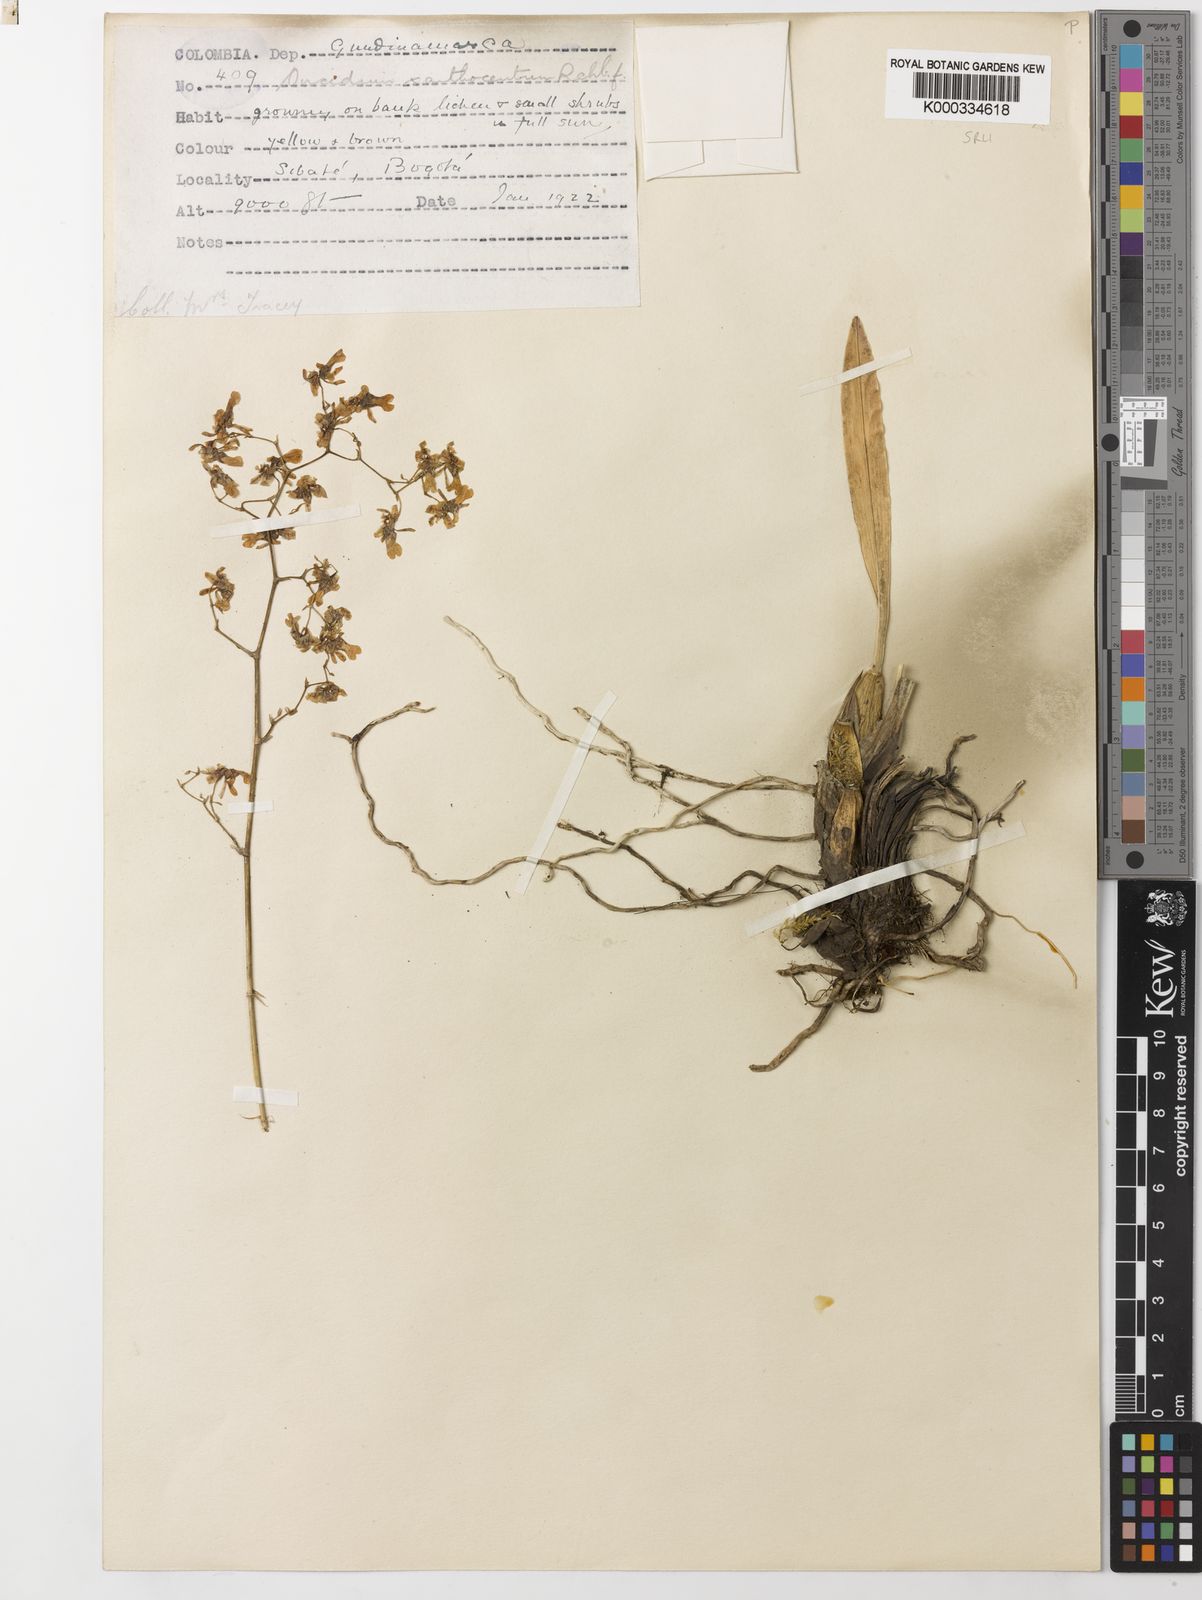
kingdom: Plantae
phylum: Tracheophyta
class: Liliopsida
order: Asparagales
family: Orchidaceae
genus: Oncidium
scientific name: Oncidium lancifolium
